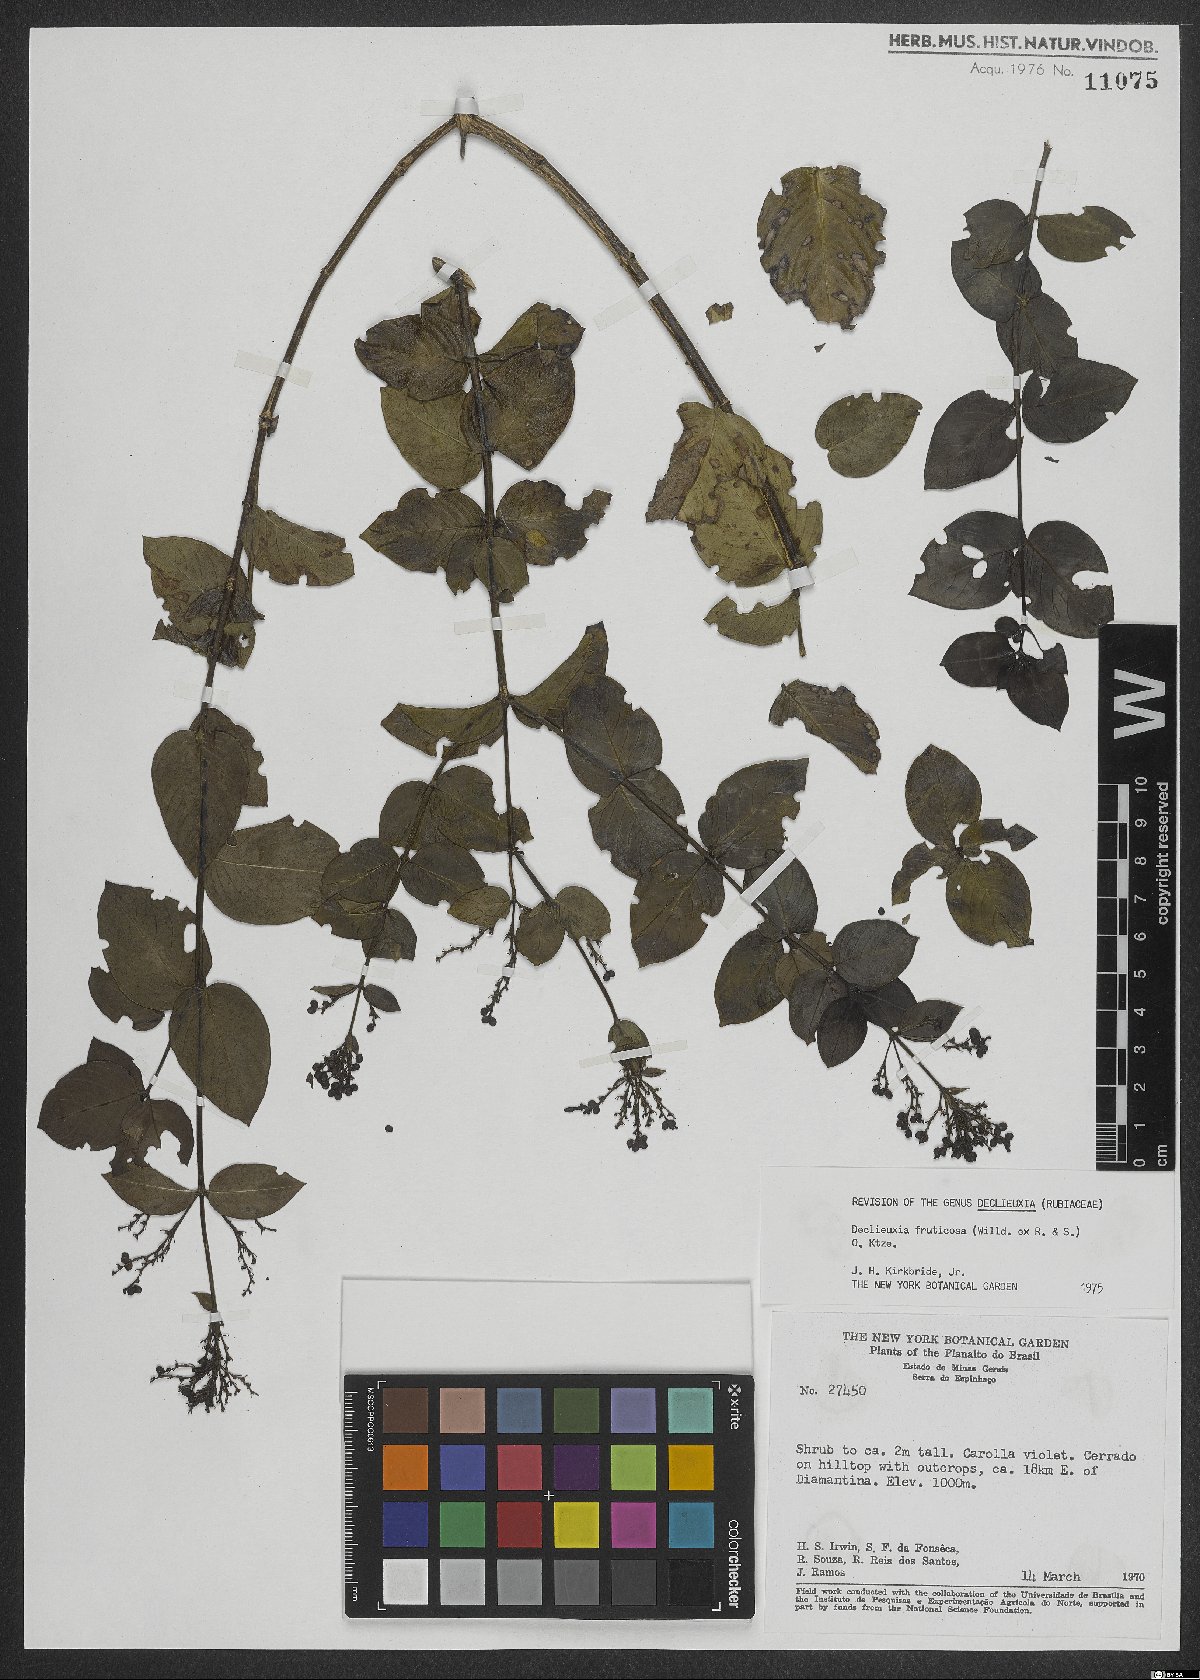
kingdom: Plantae
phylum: Tracheophyta
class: Magnoliopsida
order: Gentianales
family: Rubiaceae
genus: Declieuxia
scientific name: Declieuxia fruticosa
